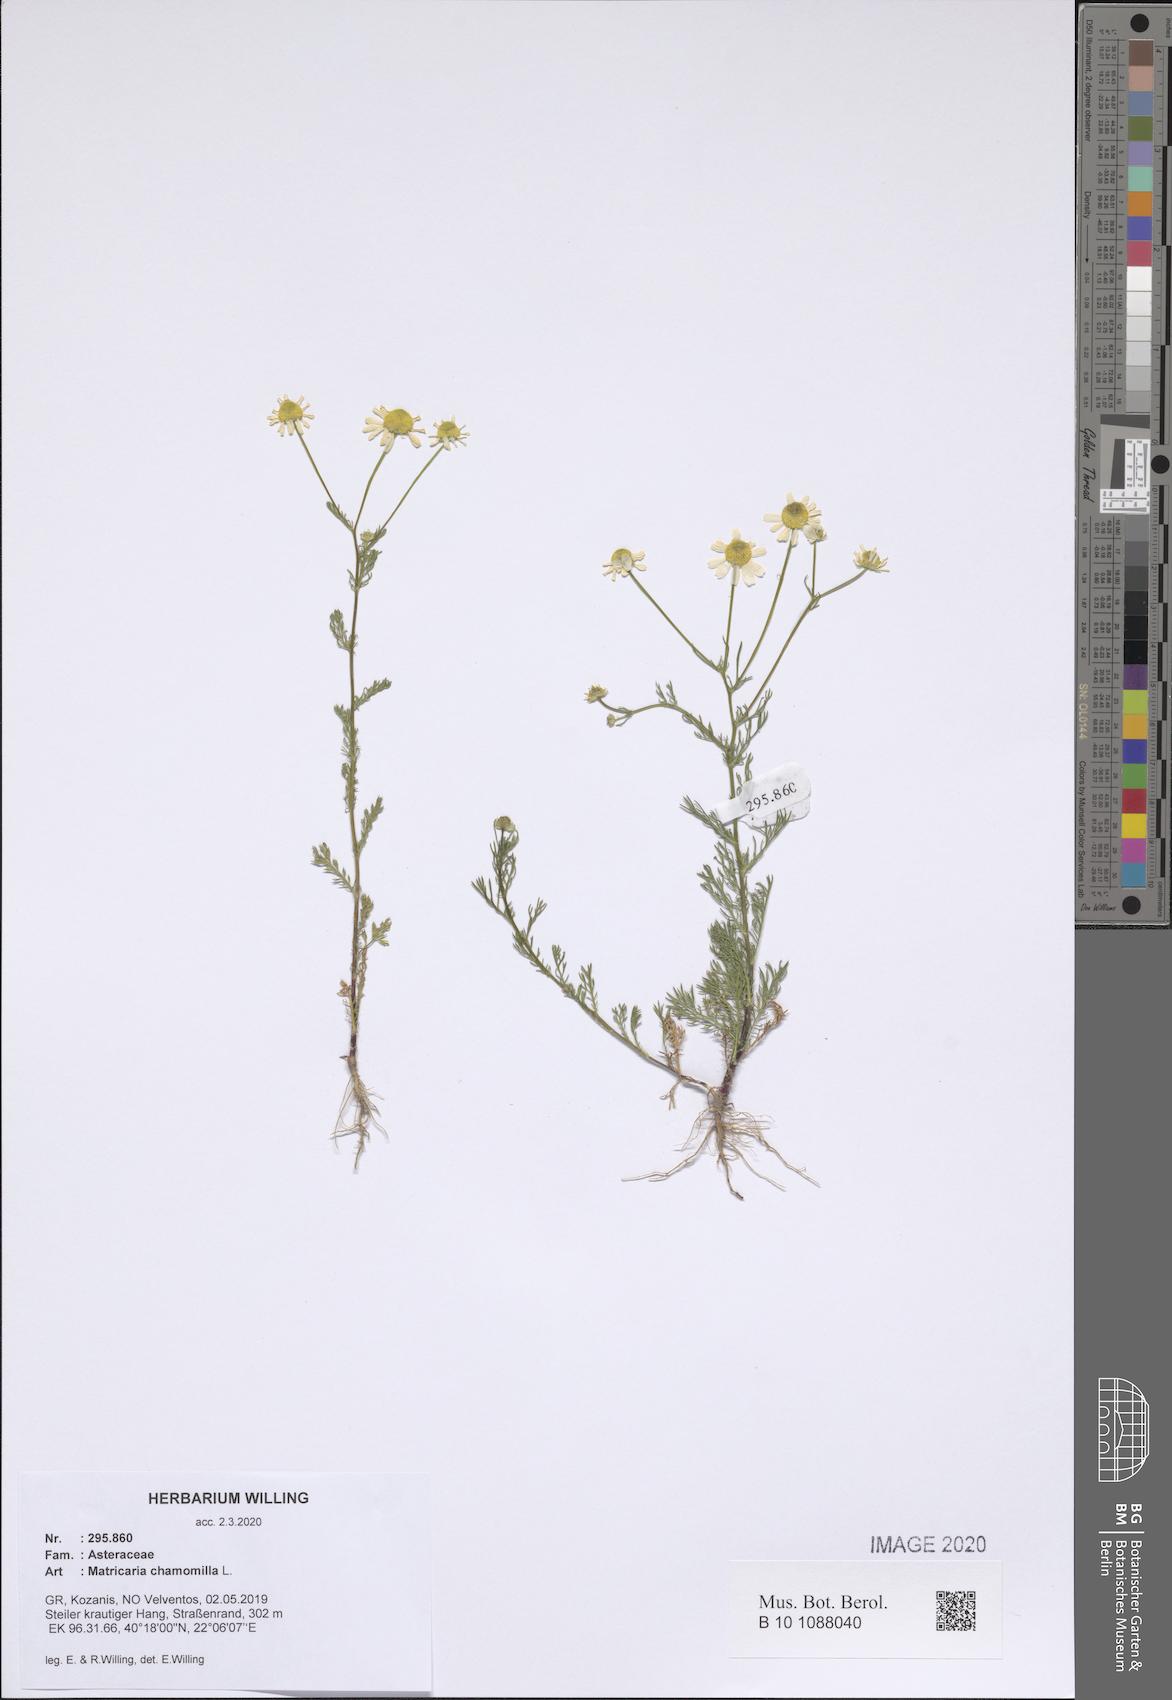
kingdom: Plantae
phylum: Tracheophyta
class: Magnoliopsida
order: Asterales
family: Asteraceae
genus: Matricaria
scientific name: Matricaria chamomilla
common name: Scented mayweed
